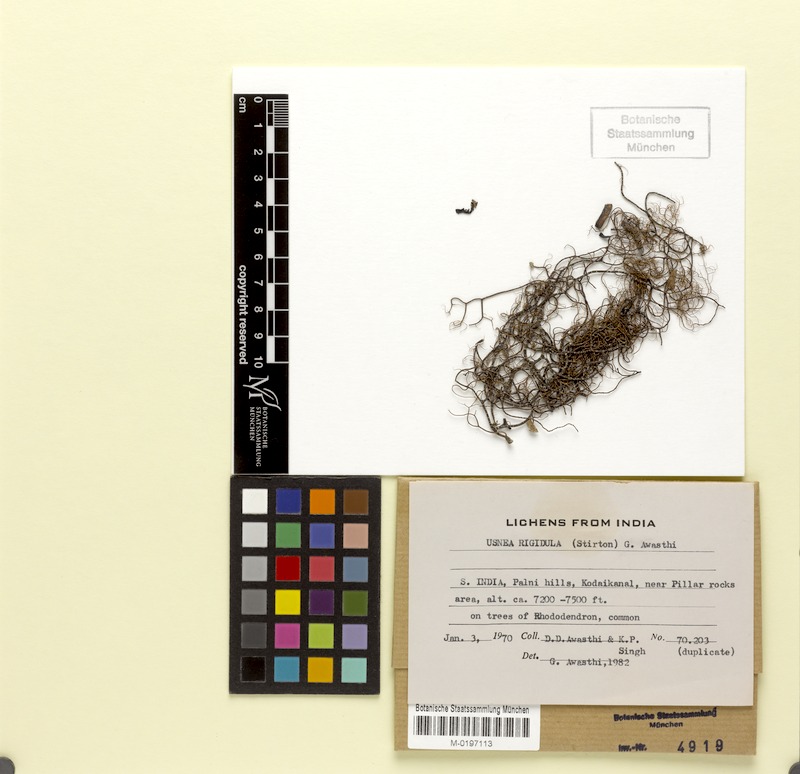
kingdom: Fungi
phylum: Ascomycota
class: Lecanoromycetes
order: Lecanorales
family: Parmeliaceae
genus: Usnea
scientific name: Usnea rigidula
